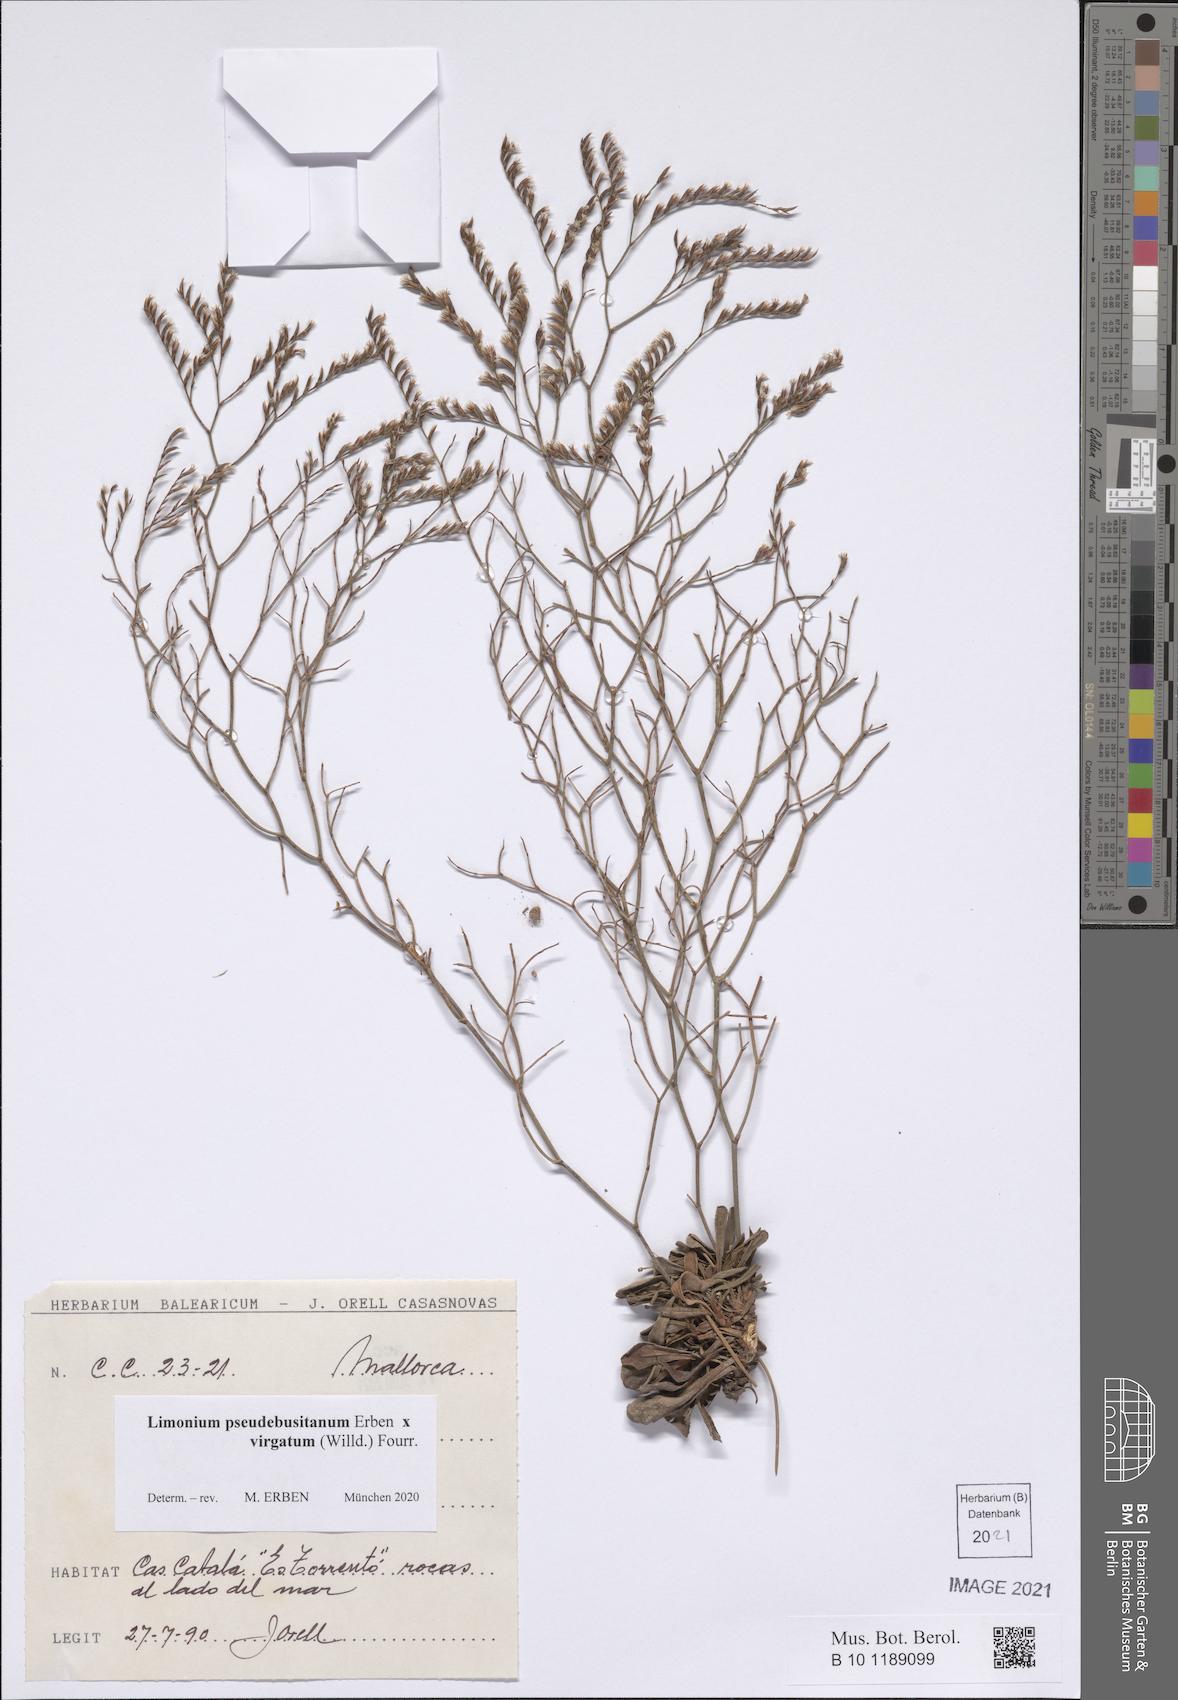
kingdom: Plantae
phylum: Tracheophyta
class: Magnoliopsida
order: Caryophyllales
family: Plumbaginaceae
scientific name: Plumbaginaceae
